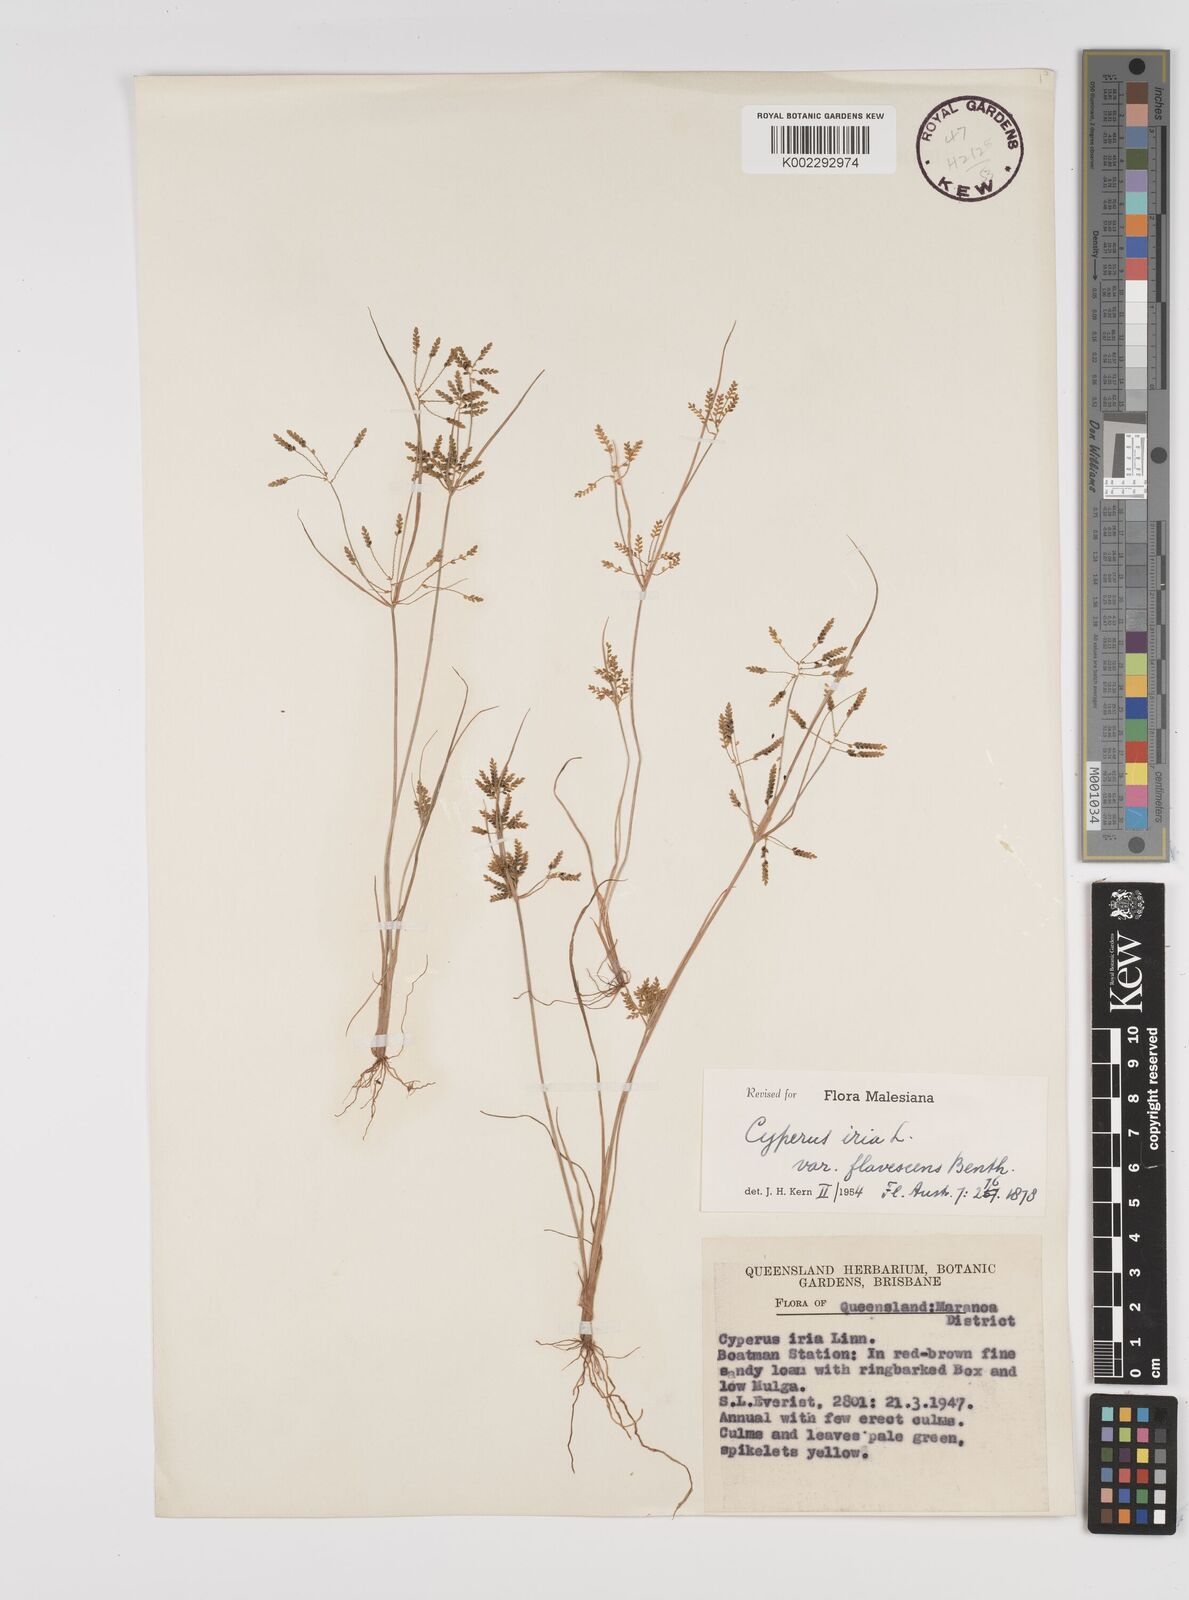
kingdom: Plantae
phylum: Tracheophyta
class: Liliopsida
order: Poales
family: Cyperaceae
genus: Cyperus
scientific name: Cyperus iria
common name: Ricefield flatsedge
